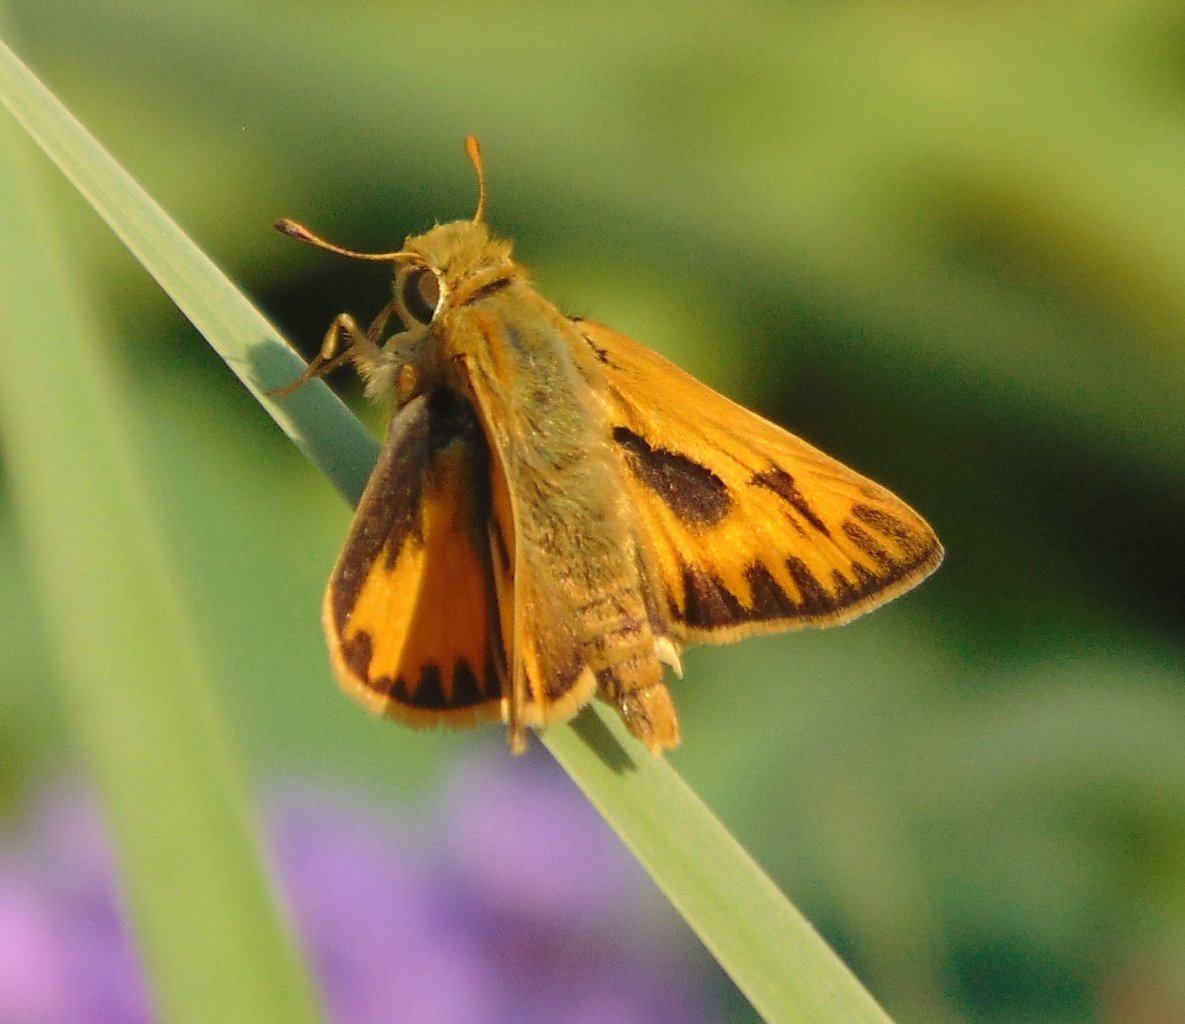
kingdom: Animalia
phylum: Arthropoda
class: Insecta
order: Lepidoptera
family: Hesperiidae
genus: Hylephila
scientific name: Hylephila phyleus
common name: Fiery Skipper
